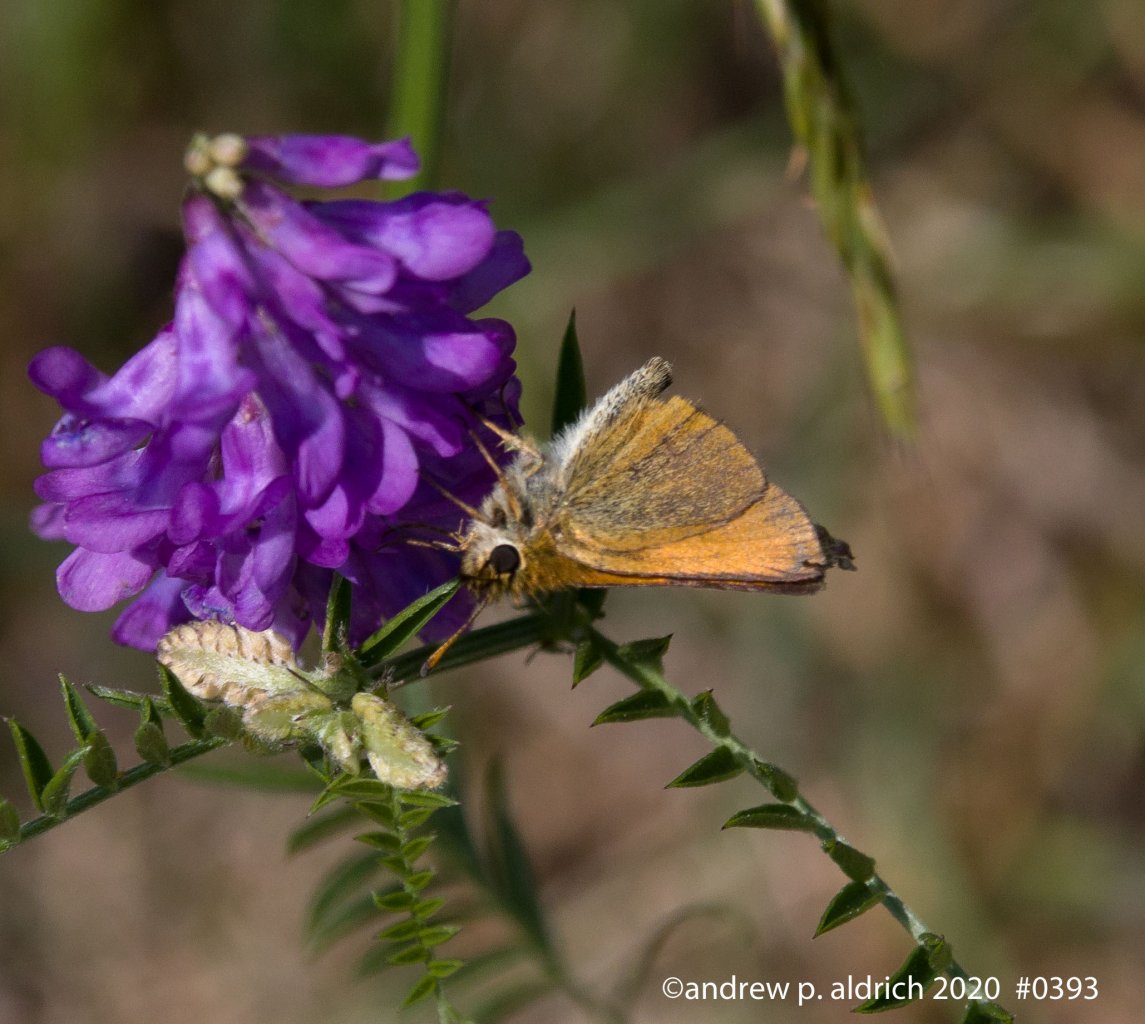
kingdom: Animalia
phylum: Arthropoda
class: Insecta
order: Lepidoptera
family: Hesperiidae
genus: Ancyloxypha
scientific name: Ancyloxypha numitor
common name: Least Skipper
